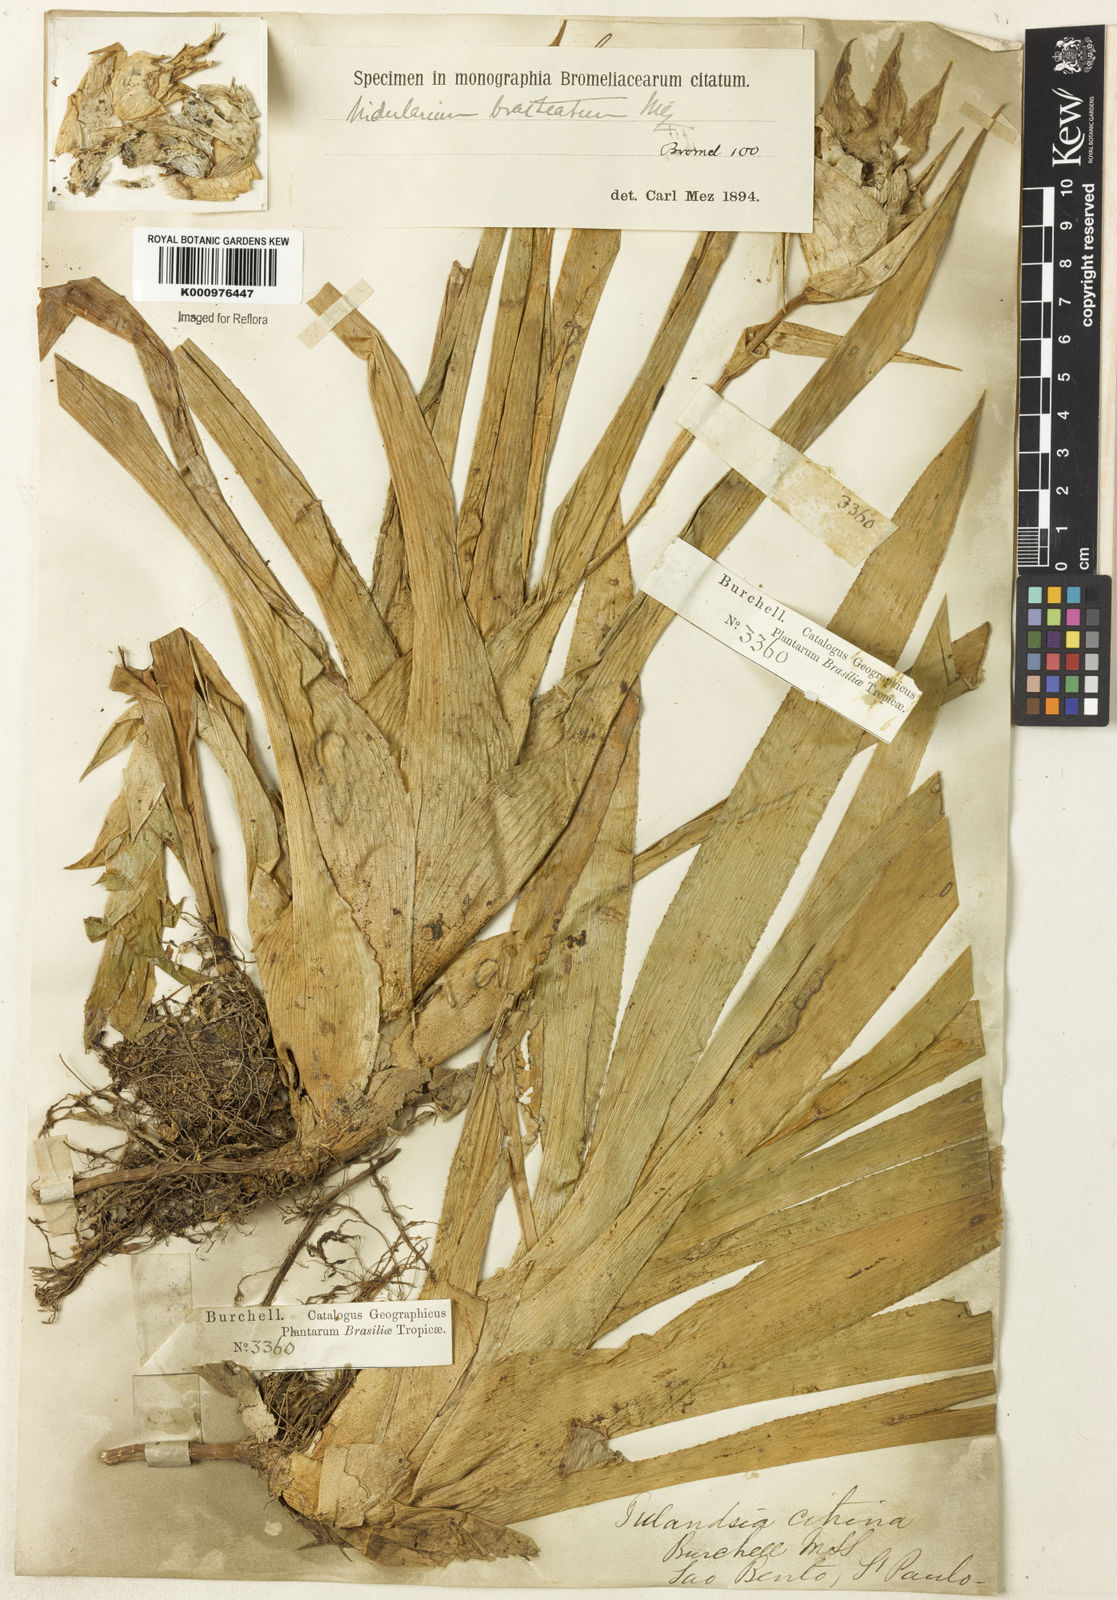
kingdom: Plantae
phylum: Tracheophyta
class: Liliopsida
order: Poales
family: Bromeliaceae
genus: Nidularium
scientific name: Nidularium
